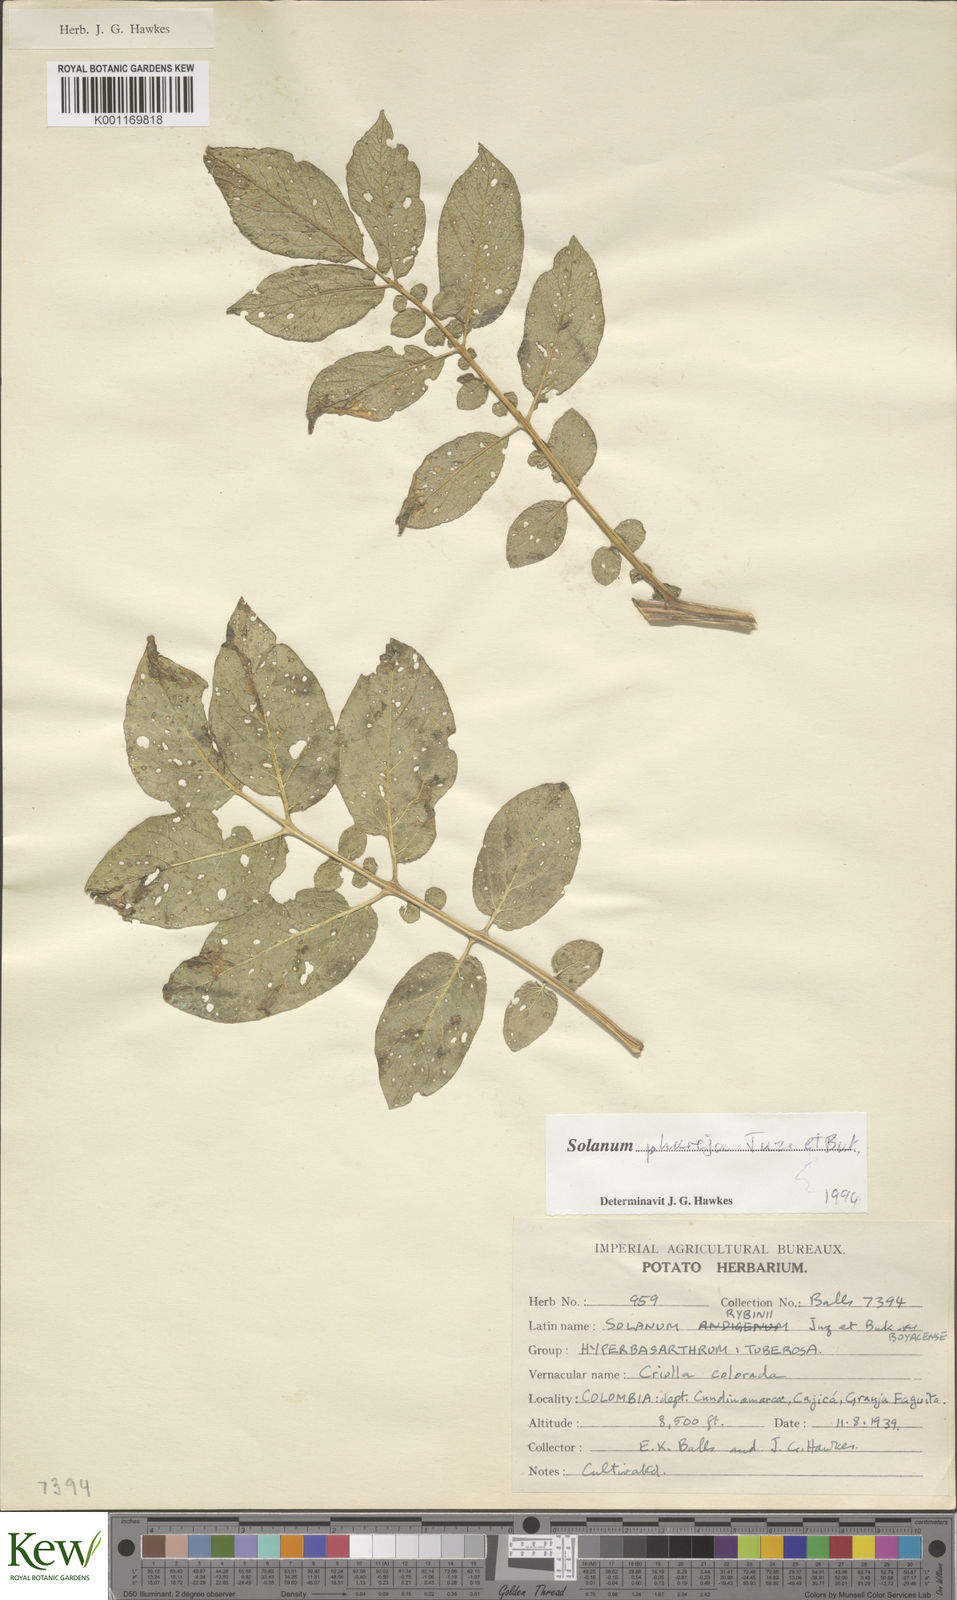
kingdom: Plantae
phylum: Tracheophyta
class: Magnoliopsida
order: Solanales
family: Solanaceae
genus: Solanum
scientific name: Solanum tuberosum
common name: Potato
